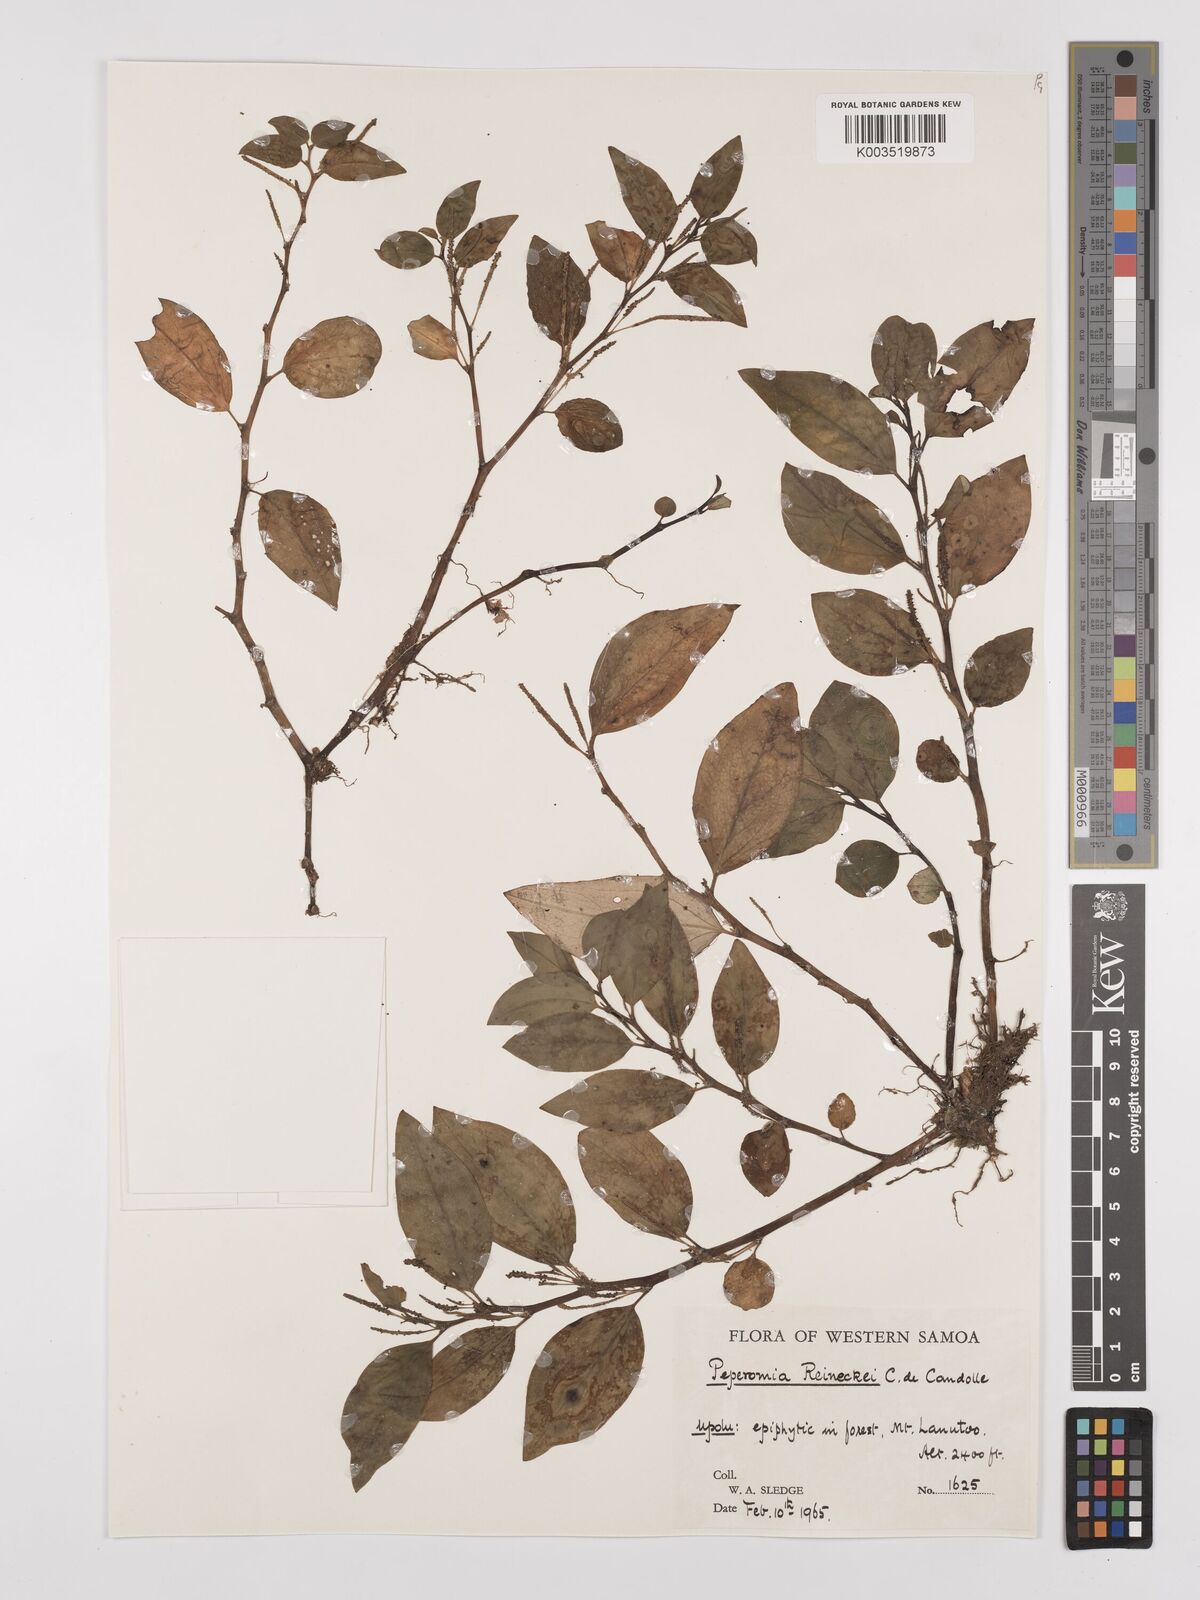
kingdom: Plantae
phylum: Tracheophyta
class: Magnoliopsida
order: Piperales
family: Piperaceae
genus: Peperomia
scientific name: Peperomia reineckei
